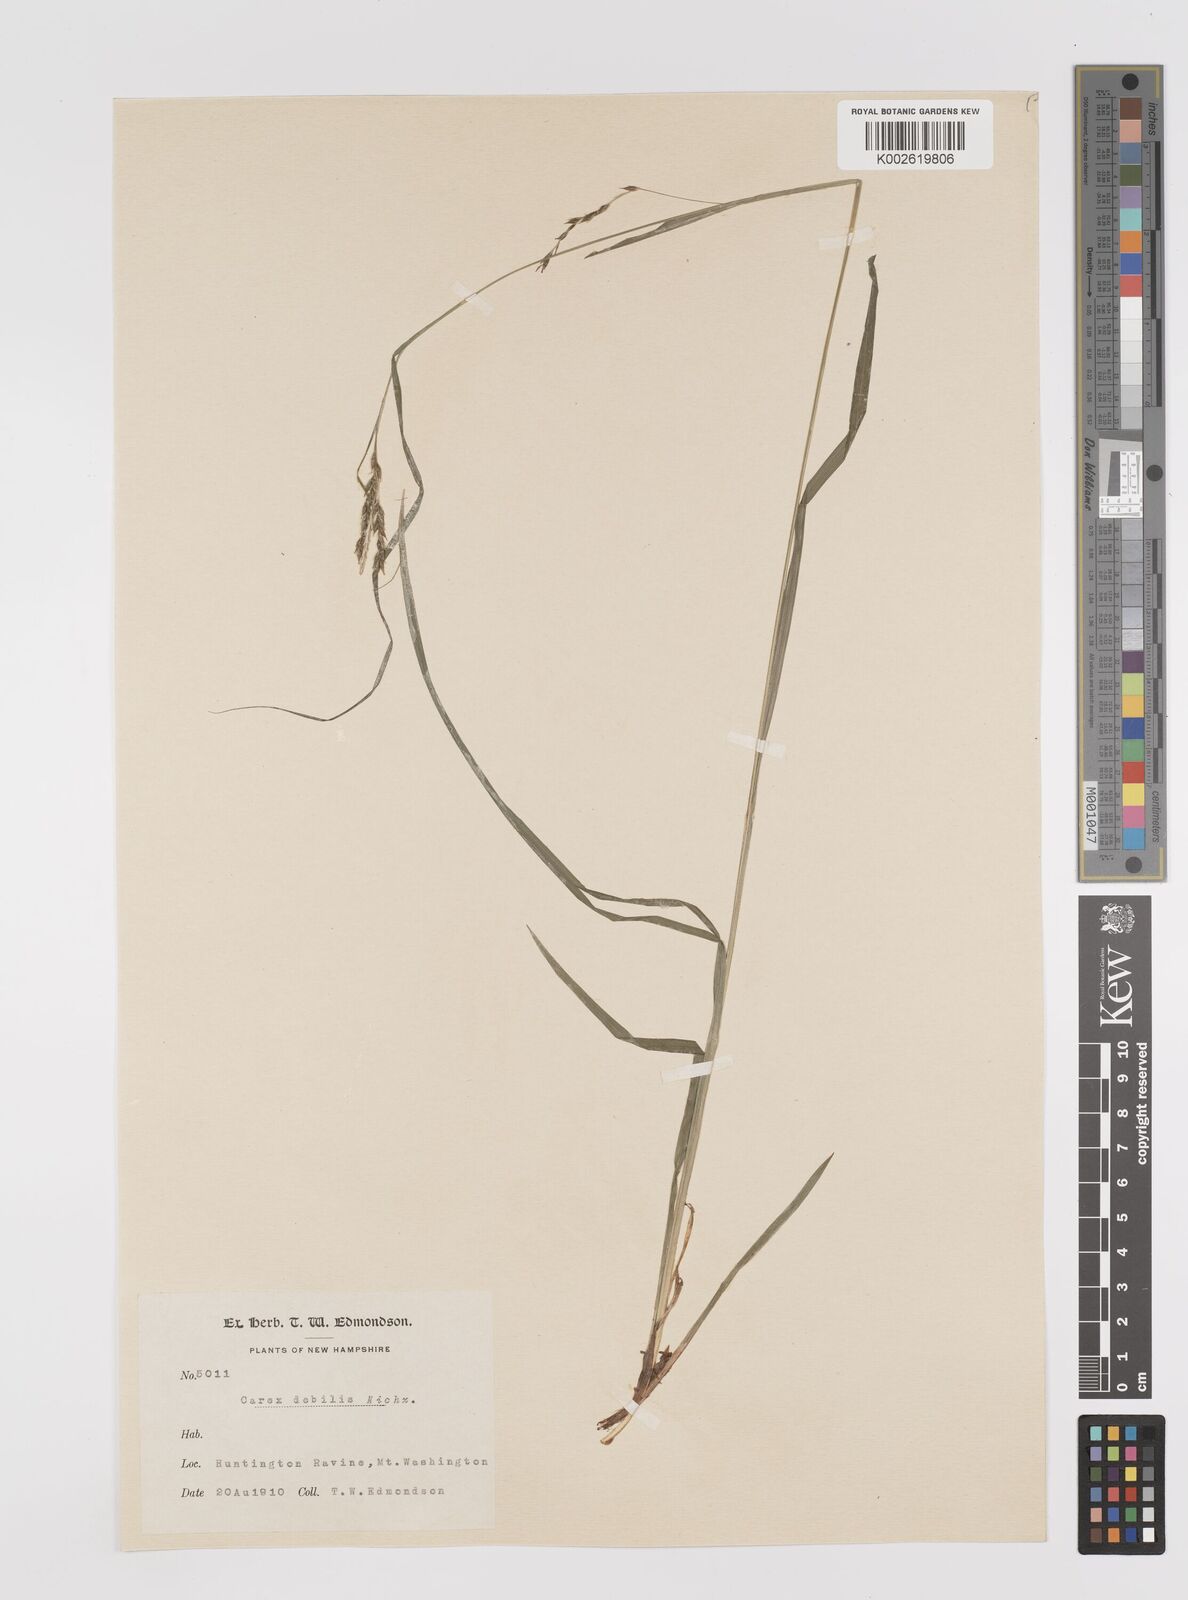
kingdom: Plantae
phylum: Tracheophyta
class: Liliopsida
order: Poales
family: Cyperaceae
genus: Carex
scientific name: Carex debilis
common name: White-edge sedge
